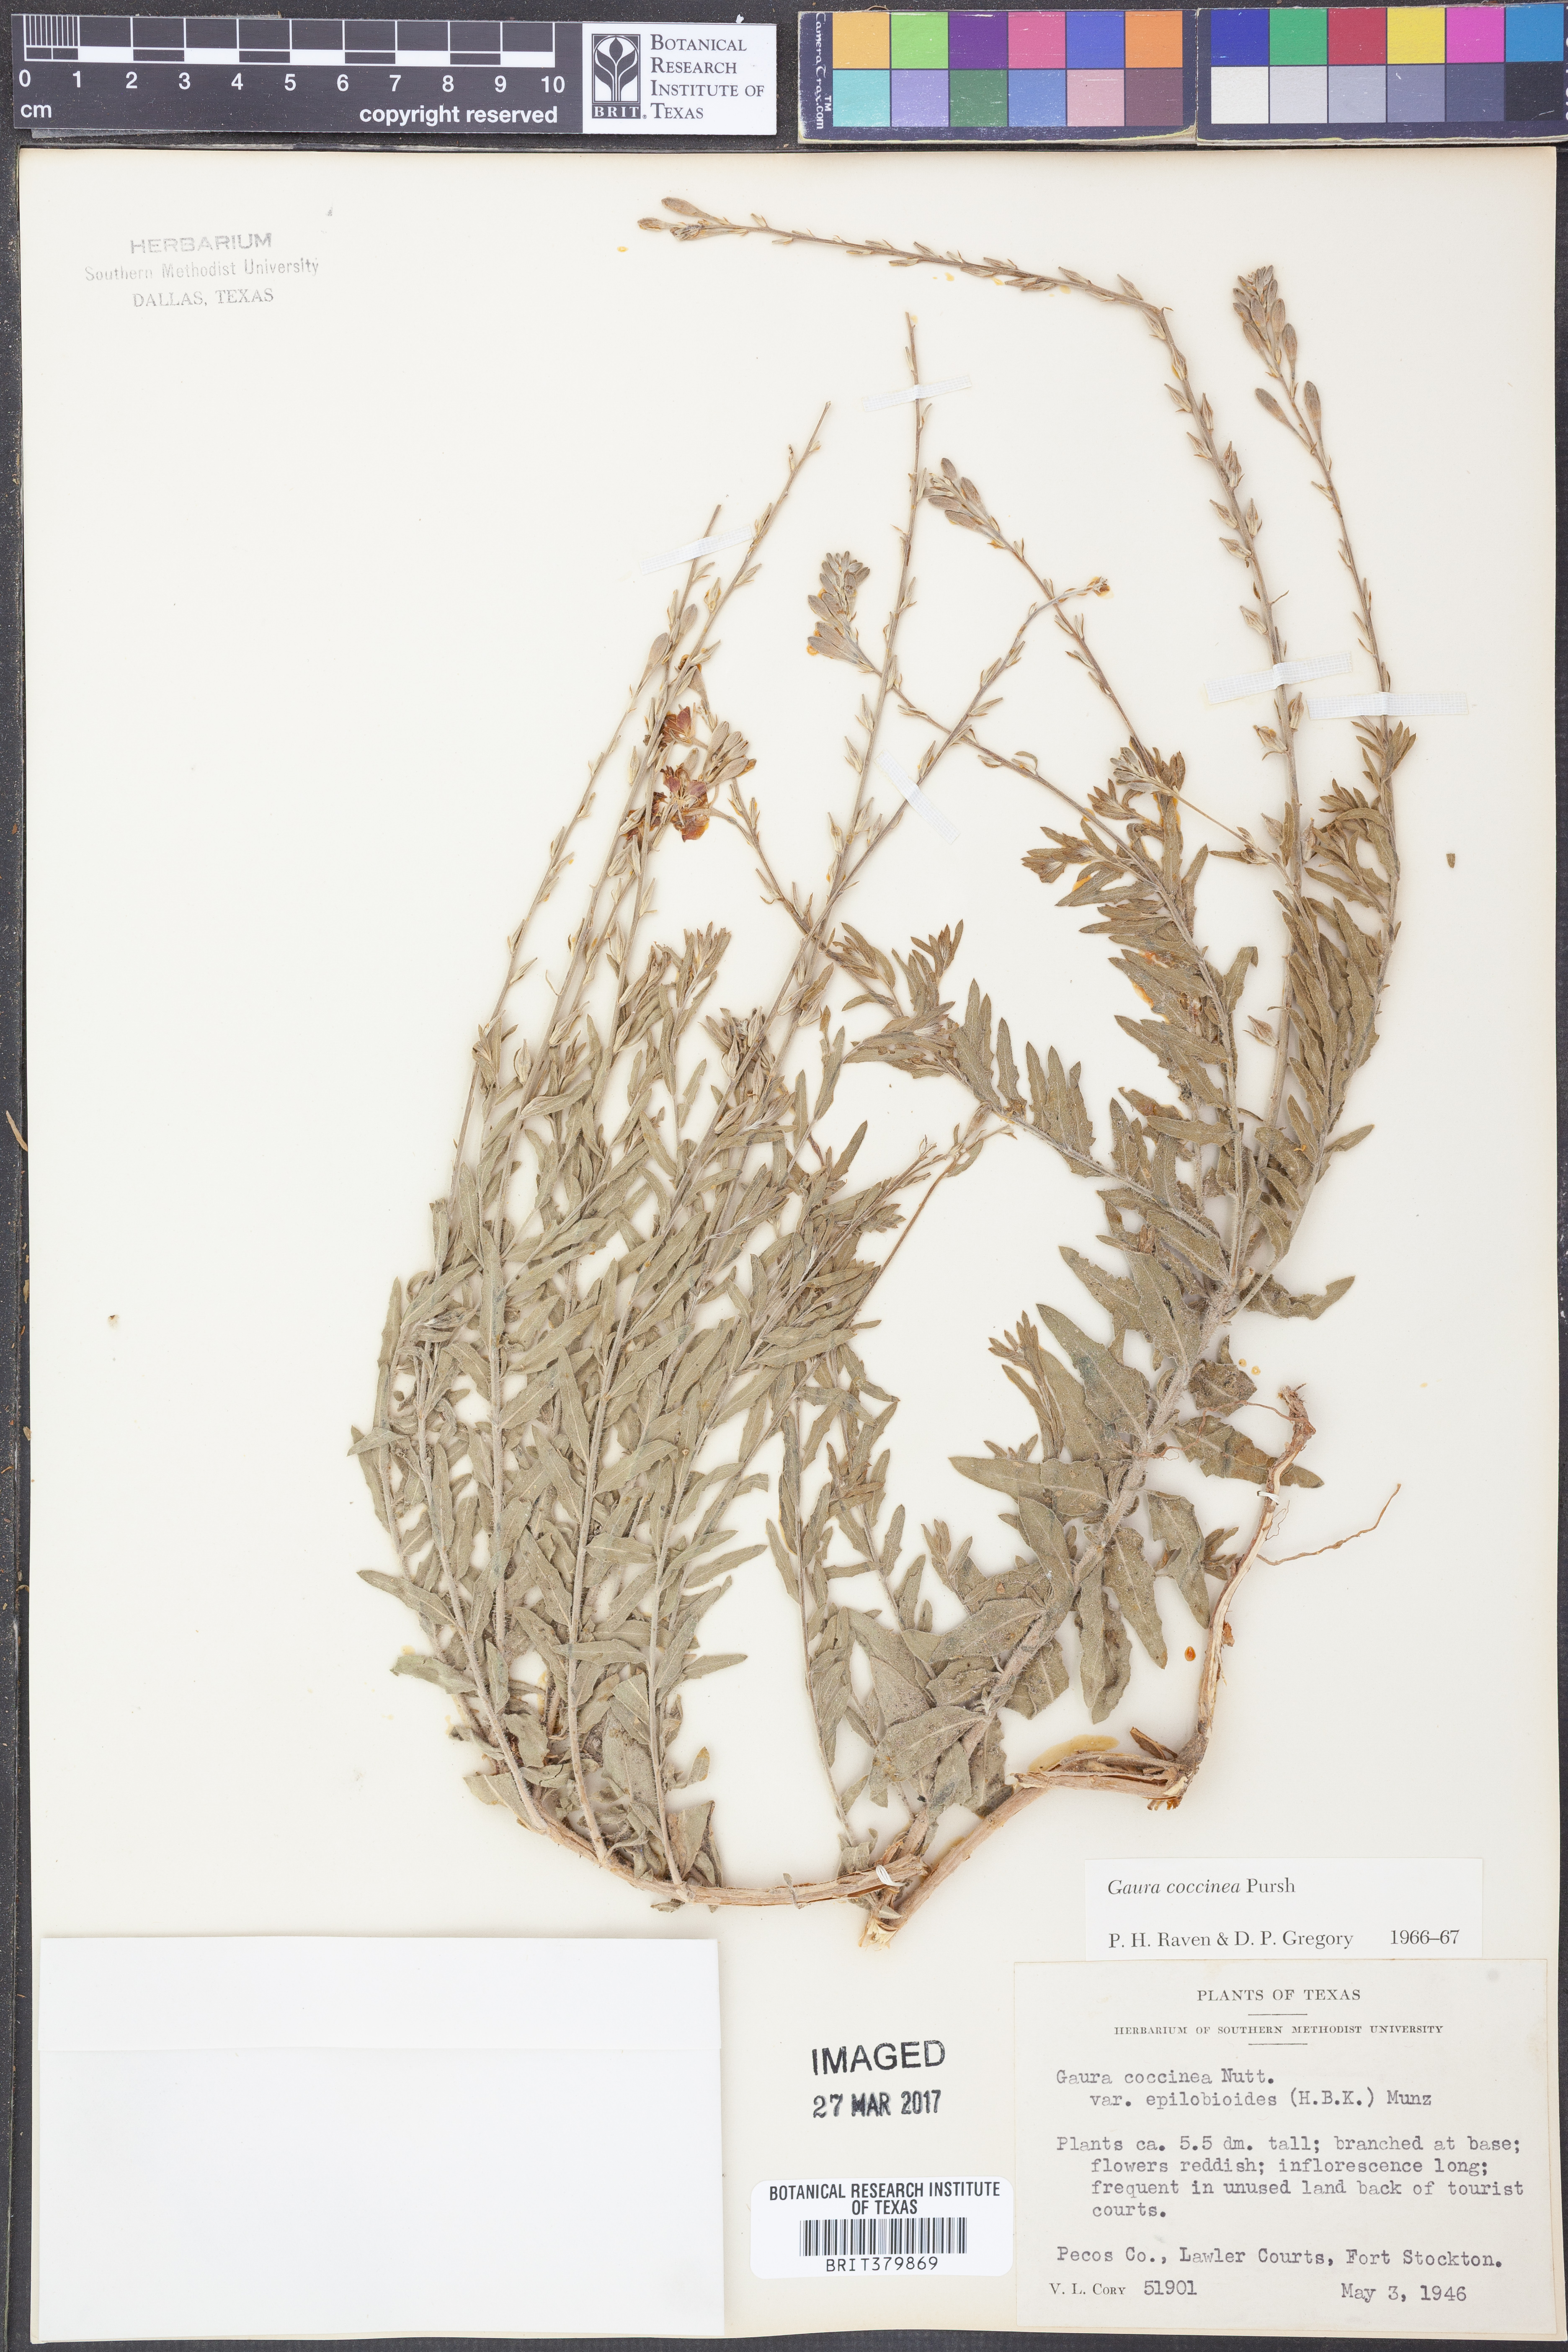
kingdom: Plantae
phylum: Tracheophyta
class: Magnoliopsida
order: Myrtales
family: Onagraceae
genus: Oenothera
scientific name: Oenothera suffrutescens
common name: Scarlet beeblossom
